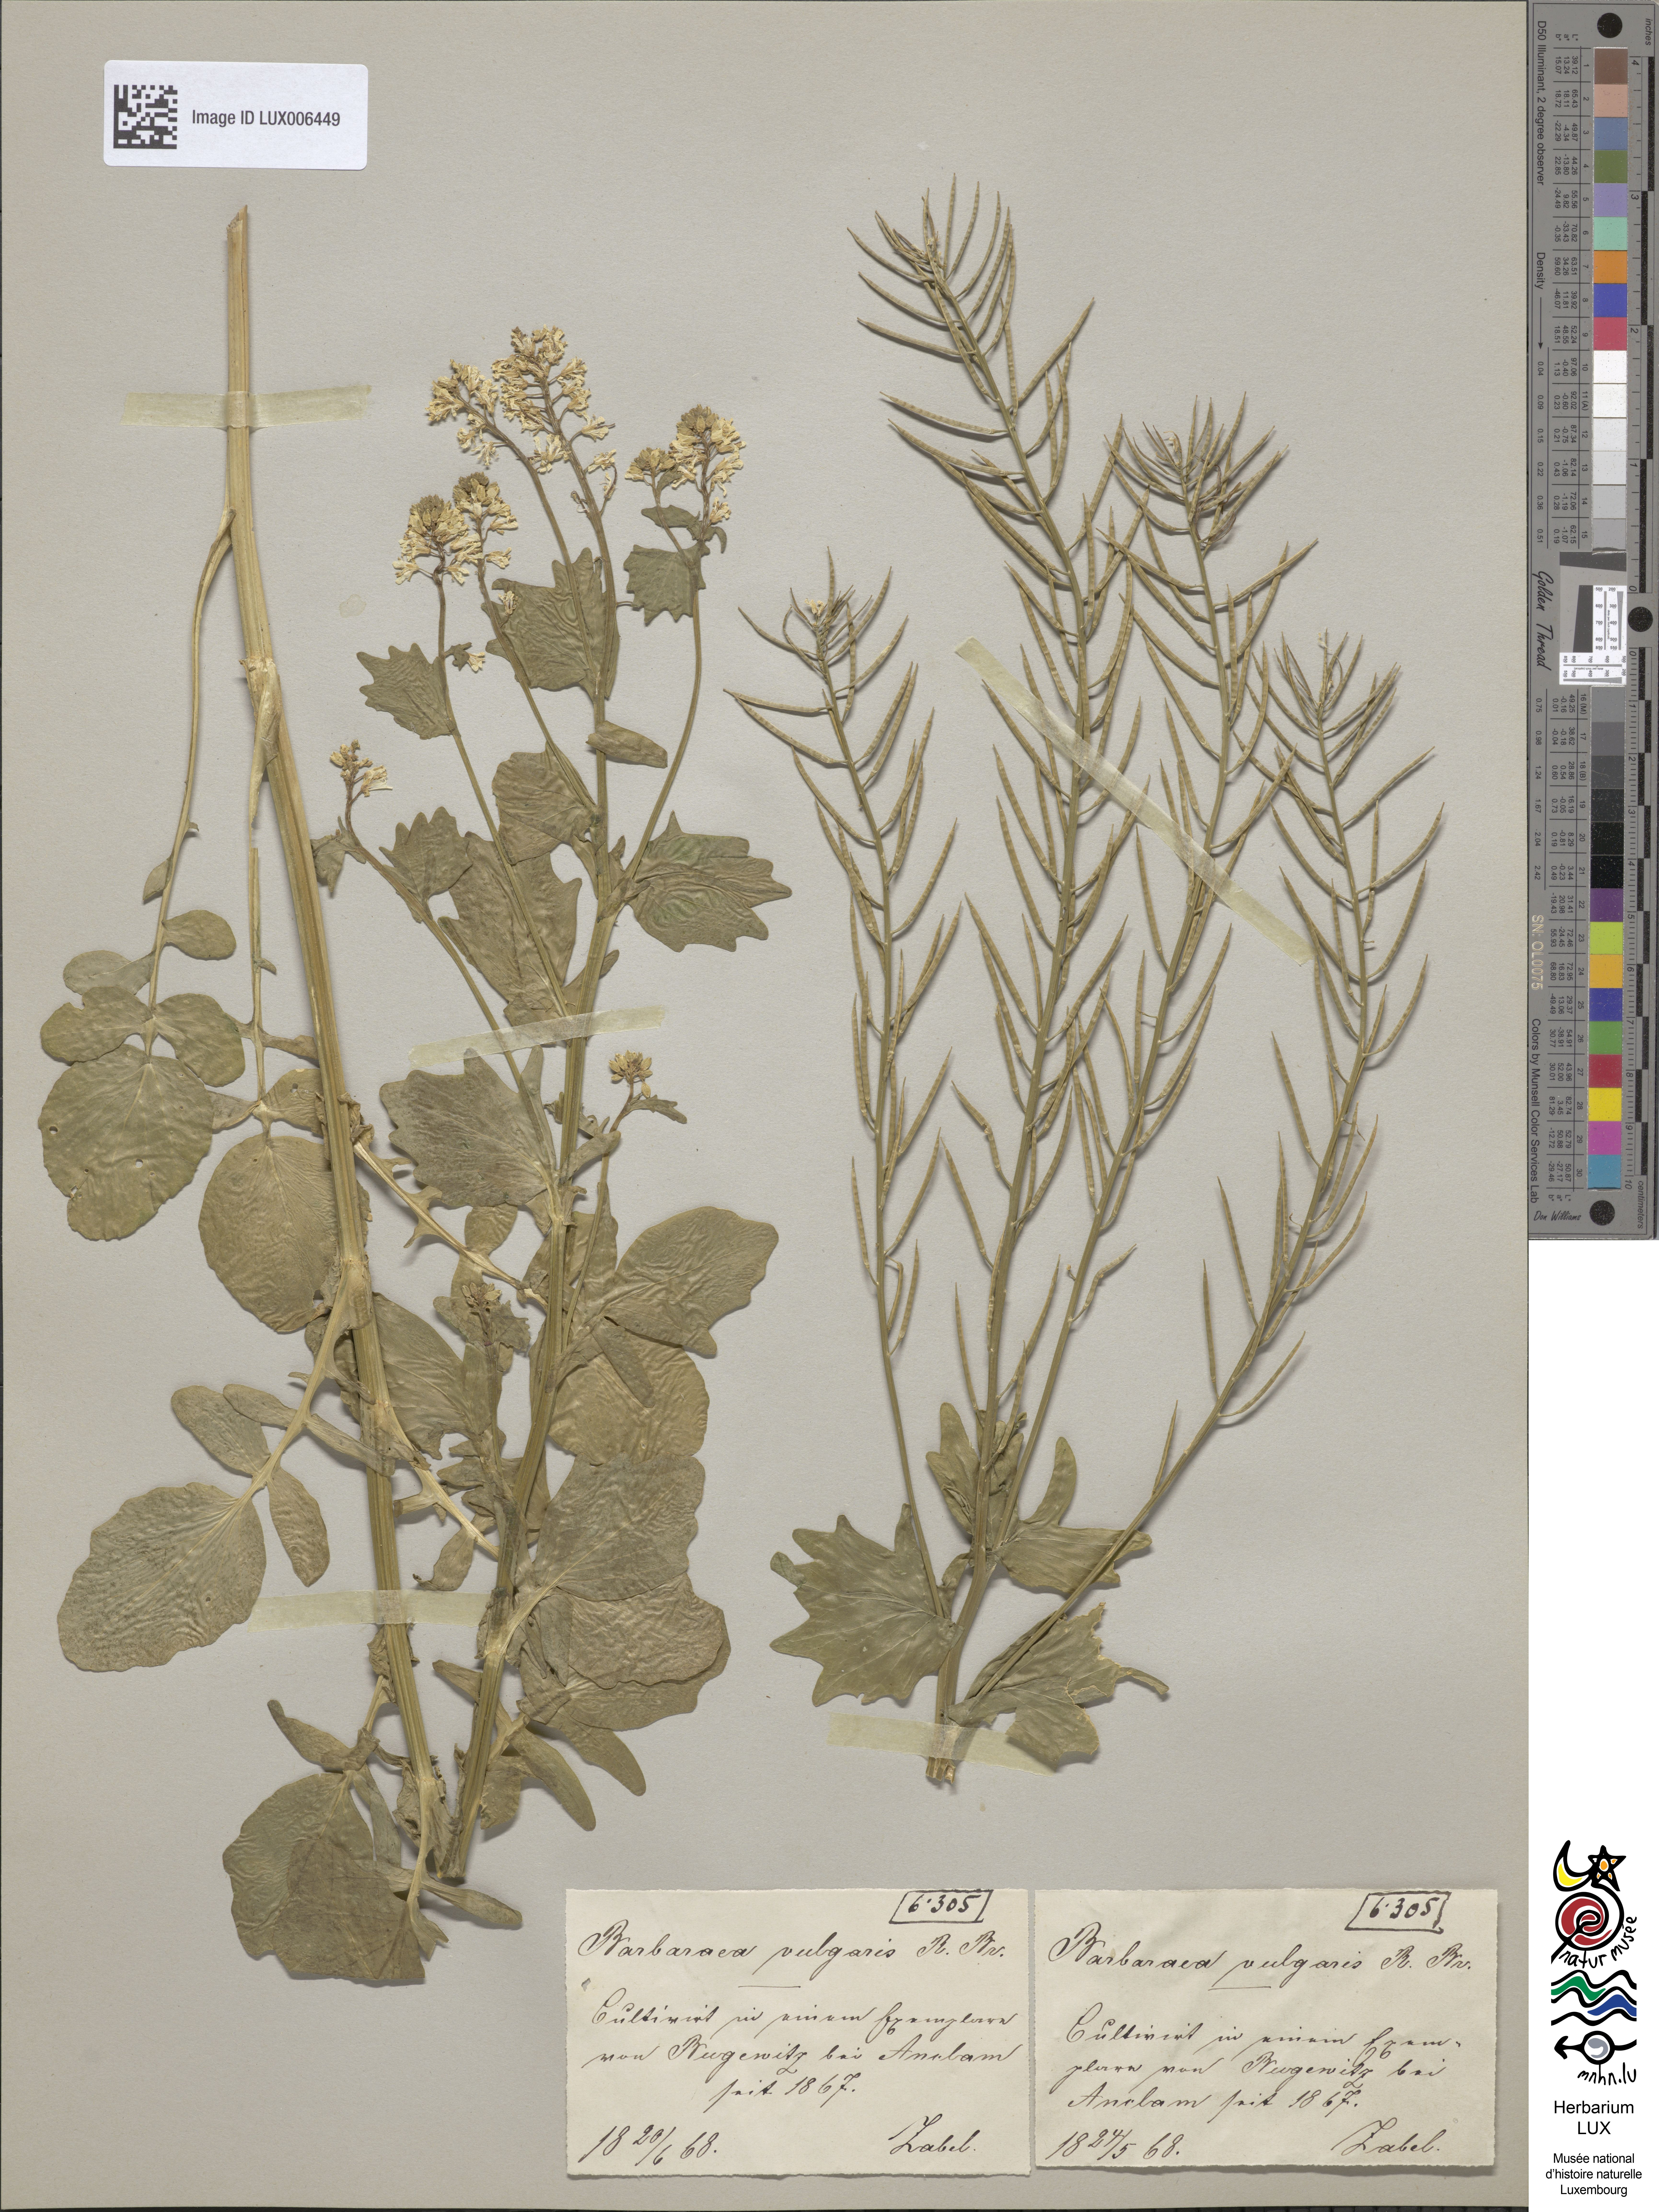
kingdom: Plantae
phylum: Tracheophyta
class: Magnoliopsida
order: Brassicales
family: Brassicaceae
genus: Barbarea
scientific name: Barbarea vulgaris
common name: Cressy-greens
